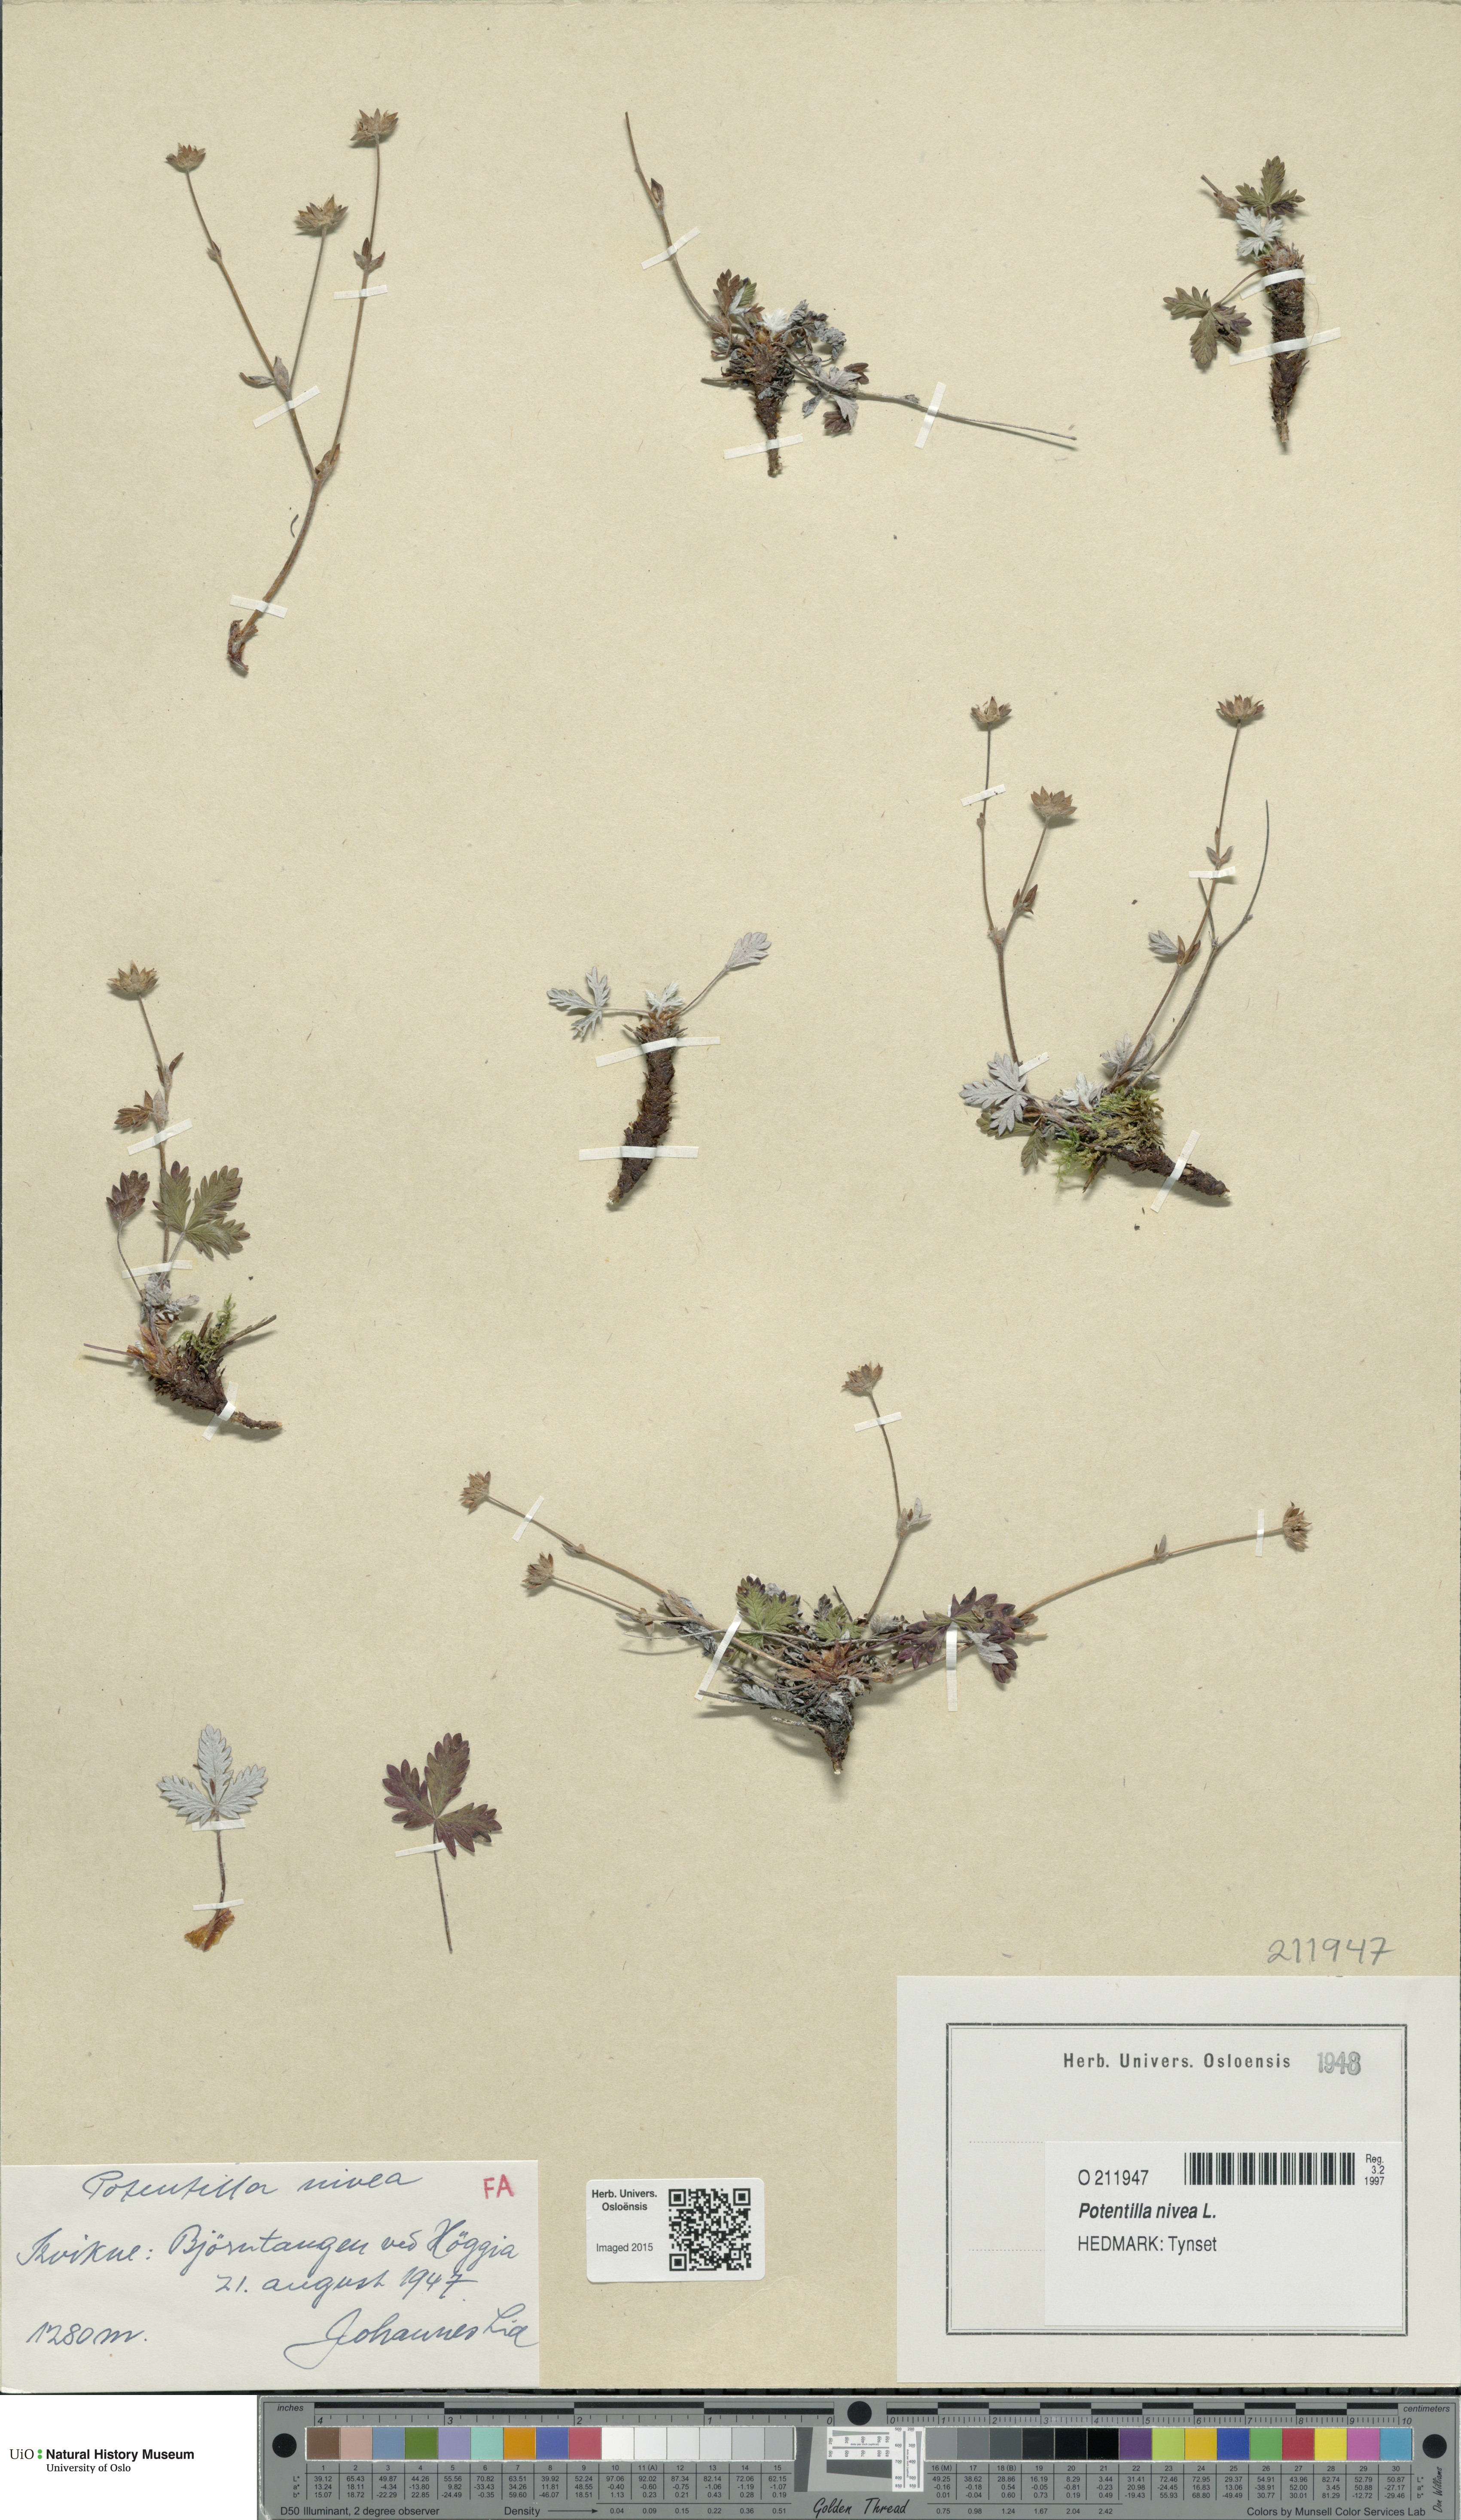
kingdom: Plantae
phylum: Tracheophyta
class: Magnoliopsida
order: Rosales
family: Rosaceae
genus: Potentilla
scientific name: Potentilla arenosa
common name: Bluff cinquefoil
